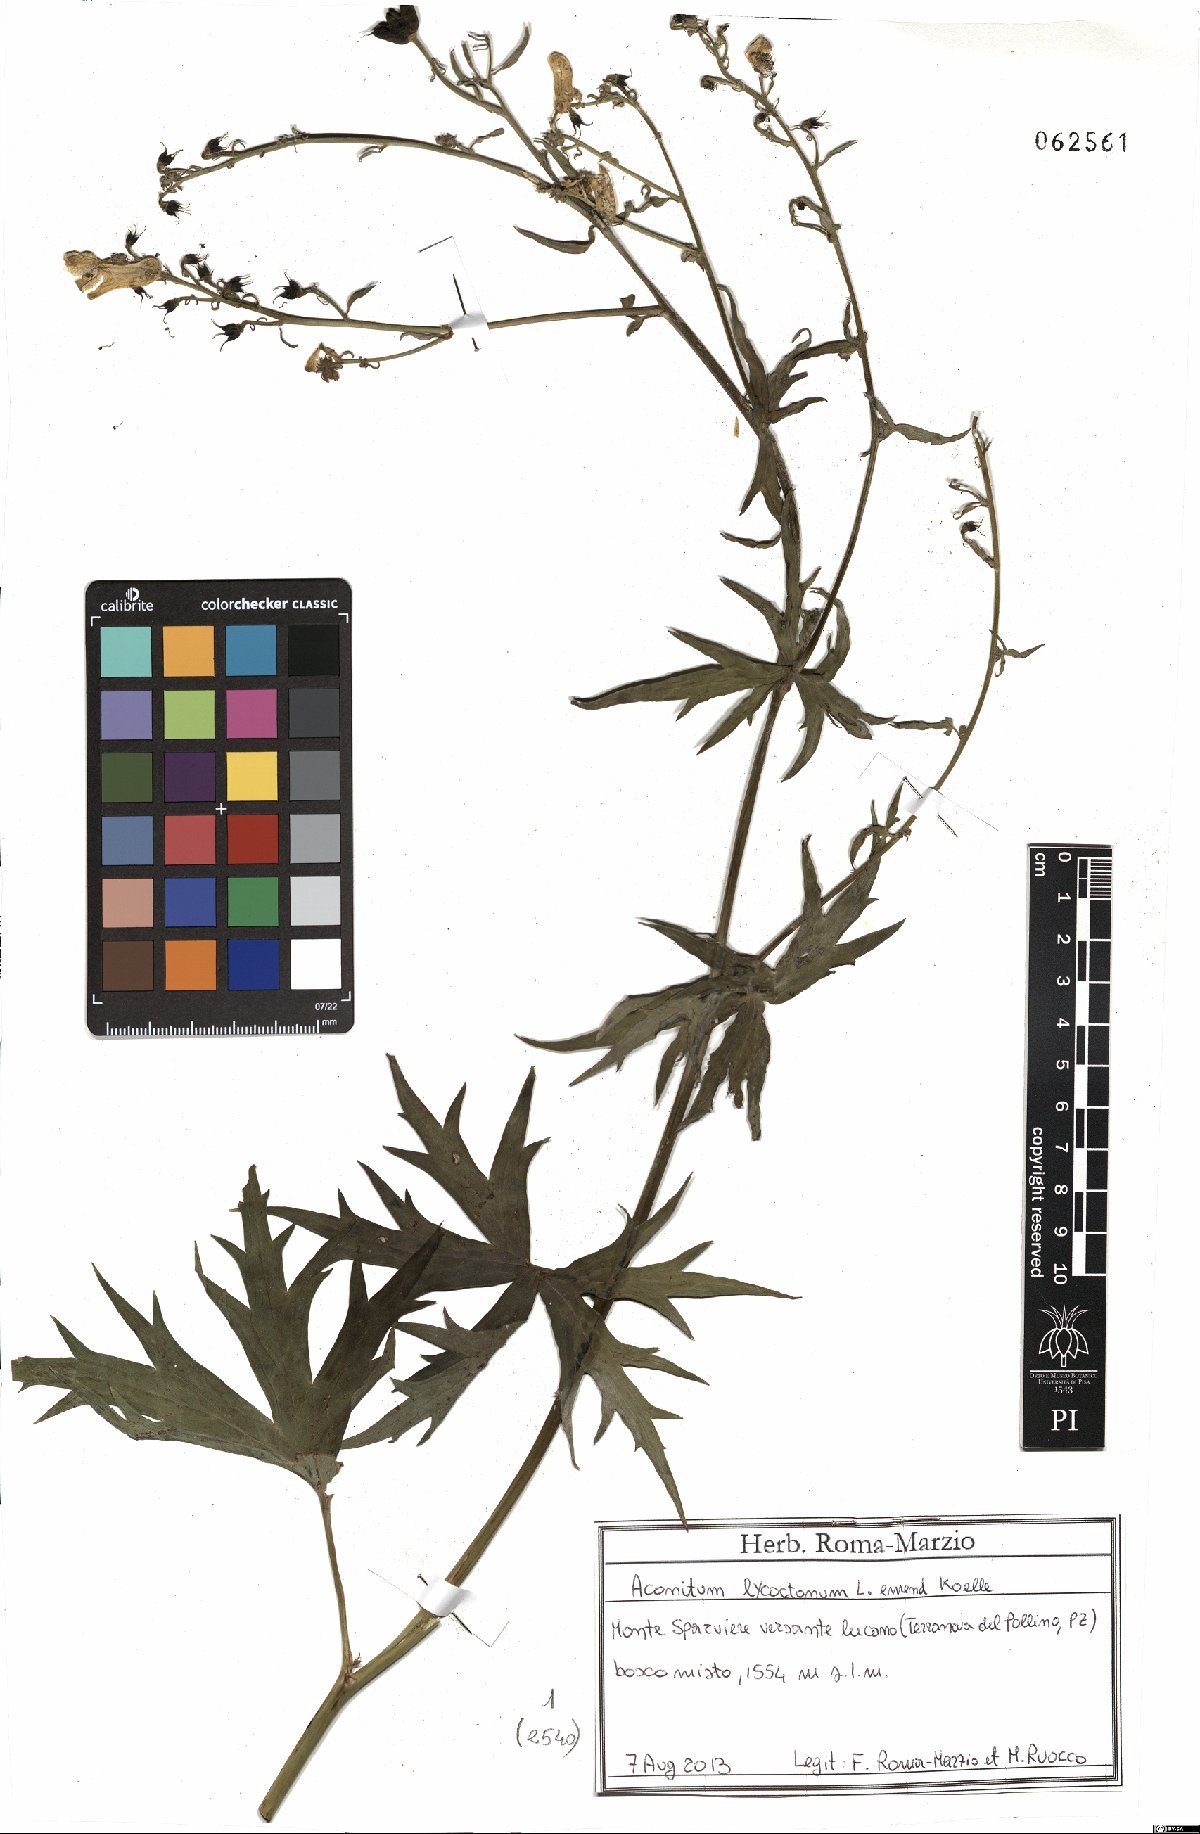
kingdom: Plantae
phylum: Tracheophyta
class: Magnoliopsida
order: Ranunculales
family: Ranunculaceae
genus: Aconitum
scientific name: Aconitum lycoctonum
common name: Wolf's-bane
